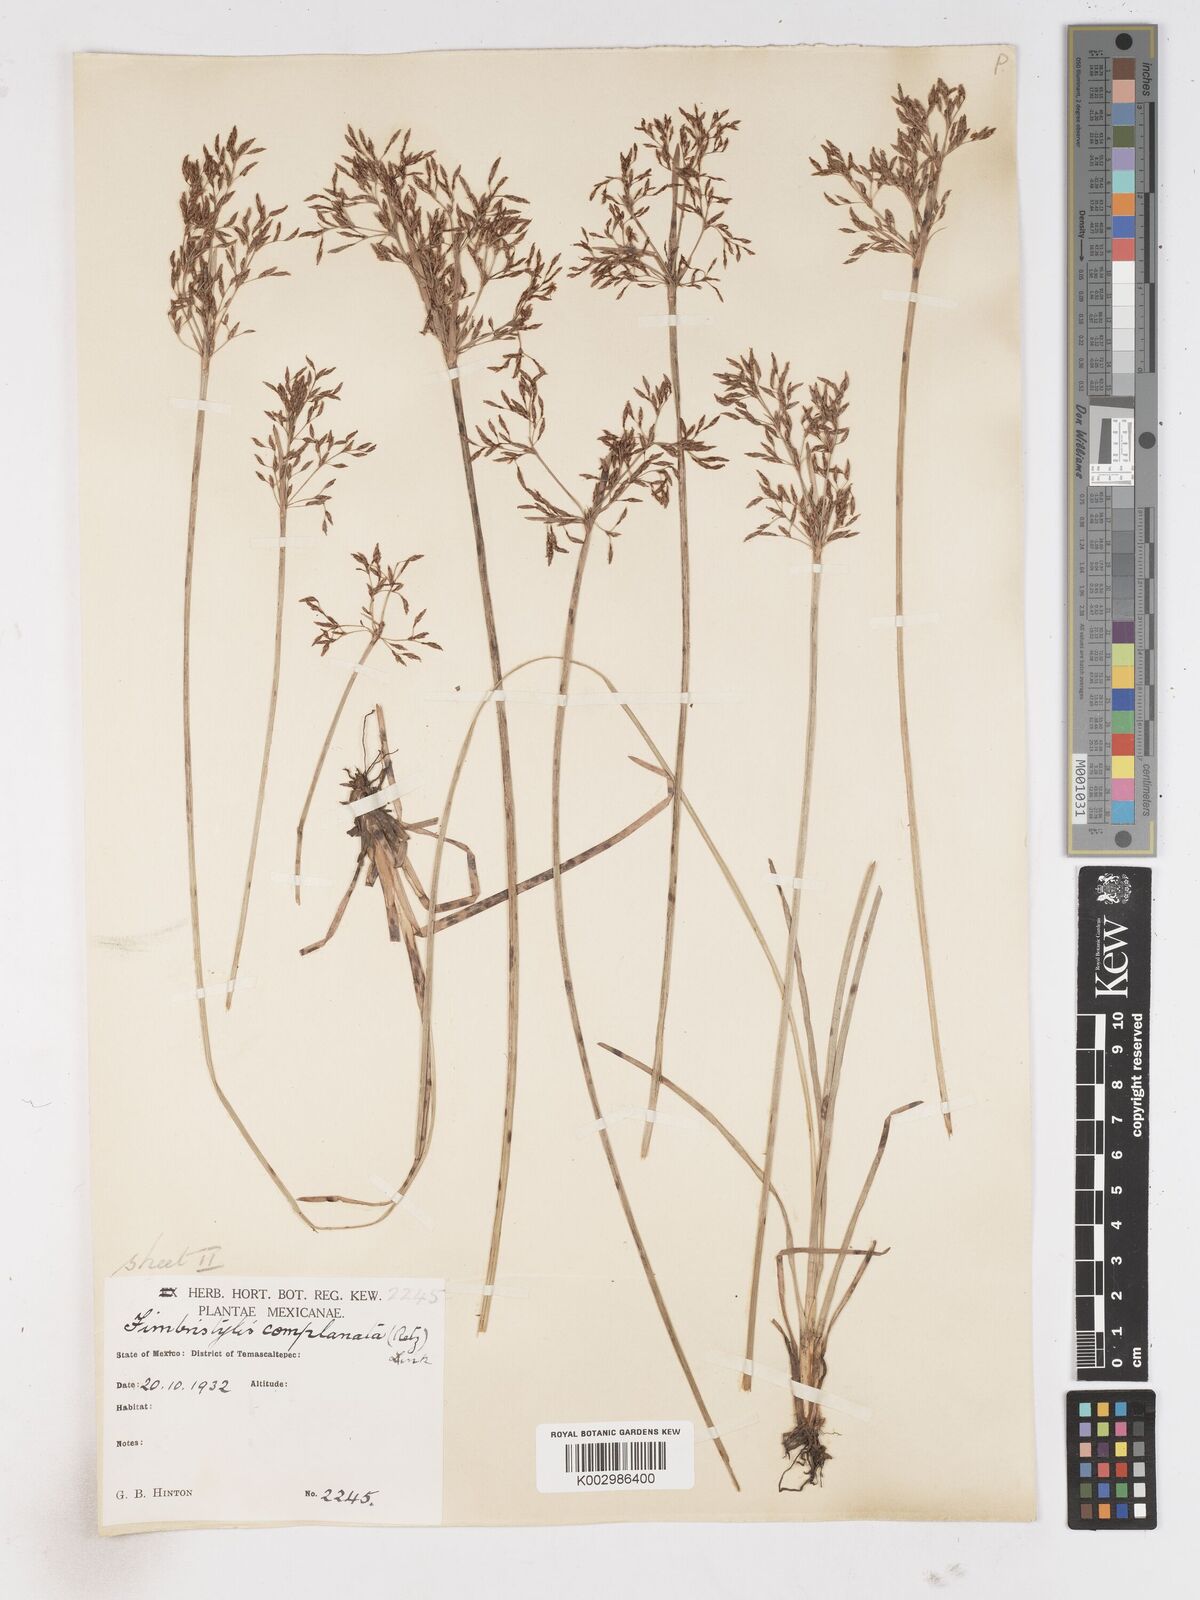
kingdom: Plantae
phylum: Tracheophyta
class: Liliopsida
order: Poales
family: Cyperaceae
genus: Fimbristylis
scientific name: Fimbristylis complanata
